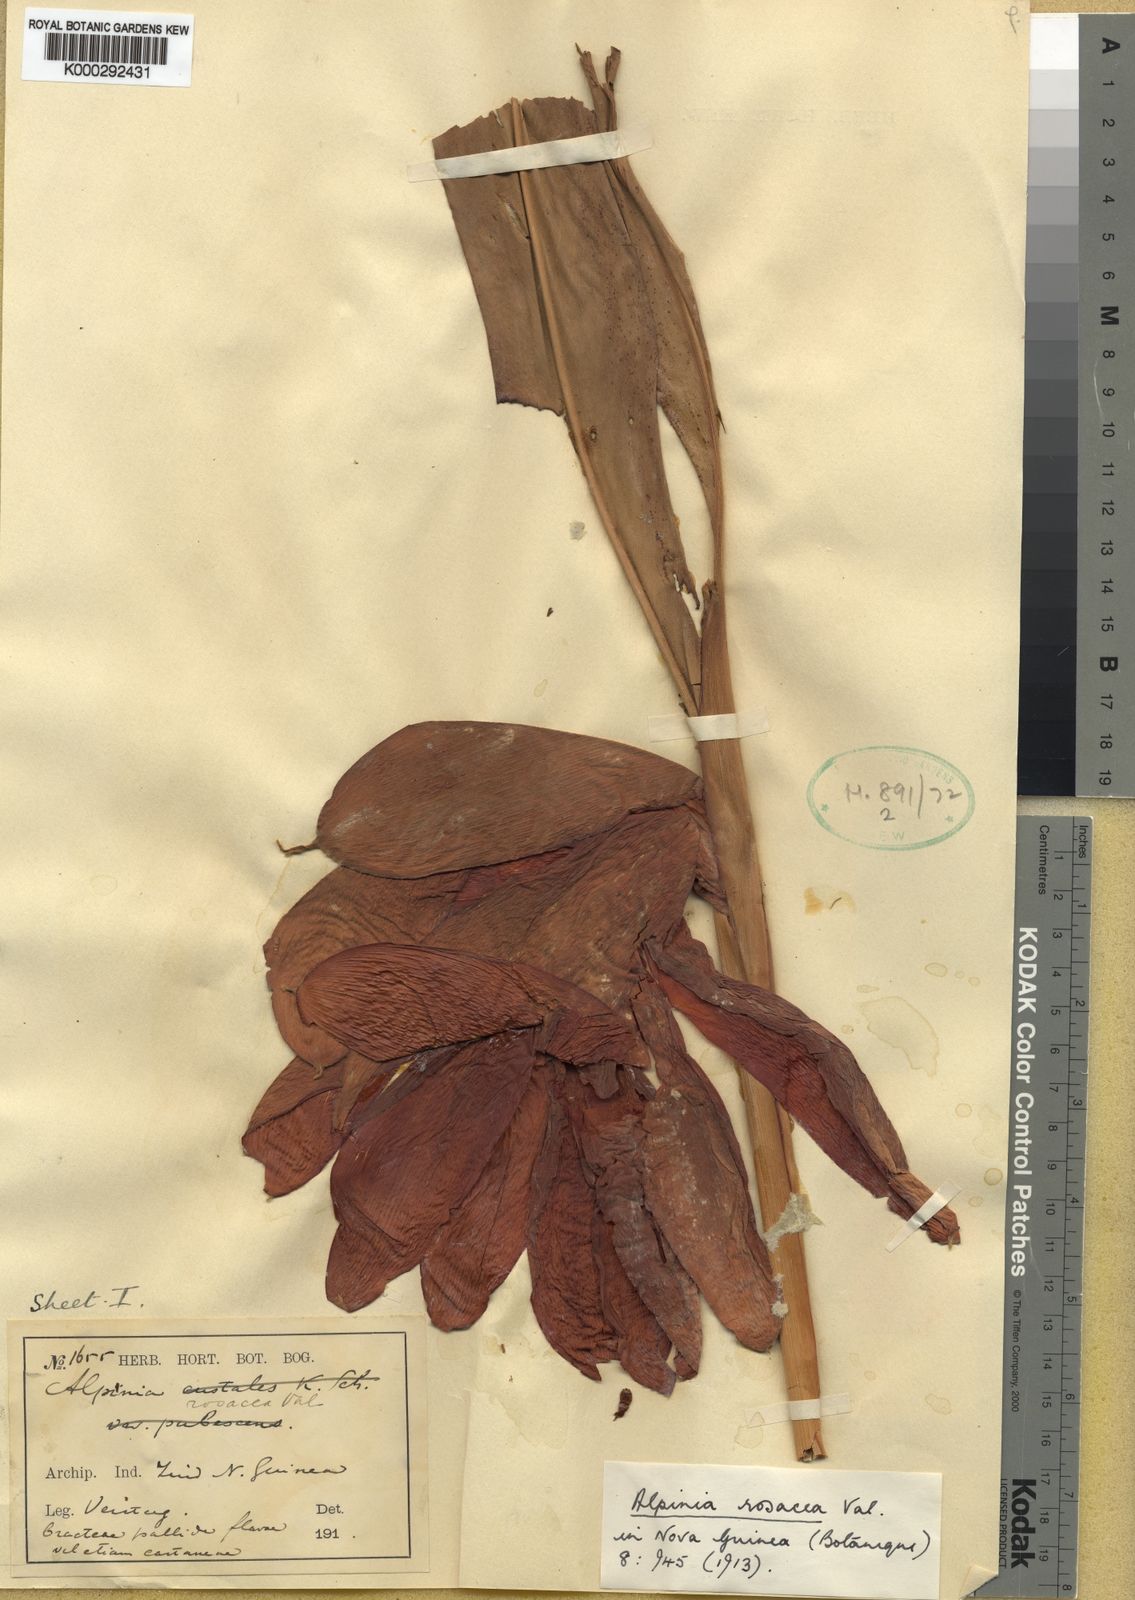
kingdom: Plantae
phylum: Tracheophyta
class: Liliopsida
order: Zingiberales
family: Zingiberaceae
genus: Alpinia
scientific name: Alpinia rosacea
